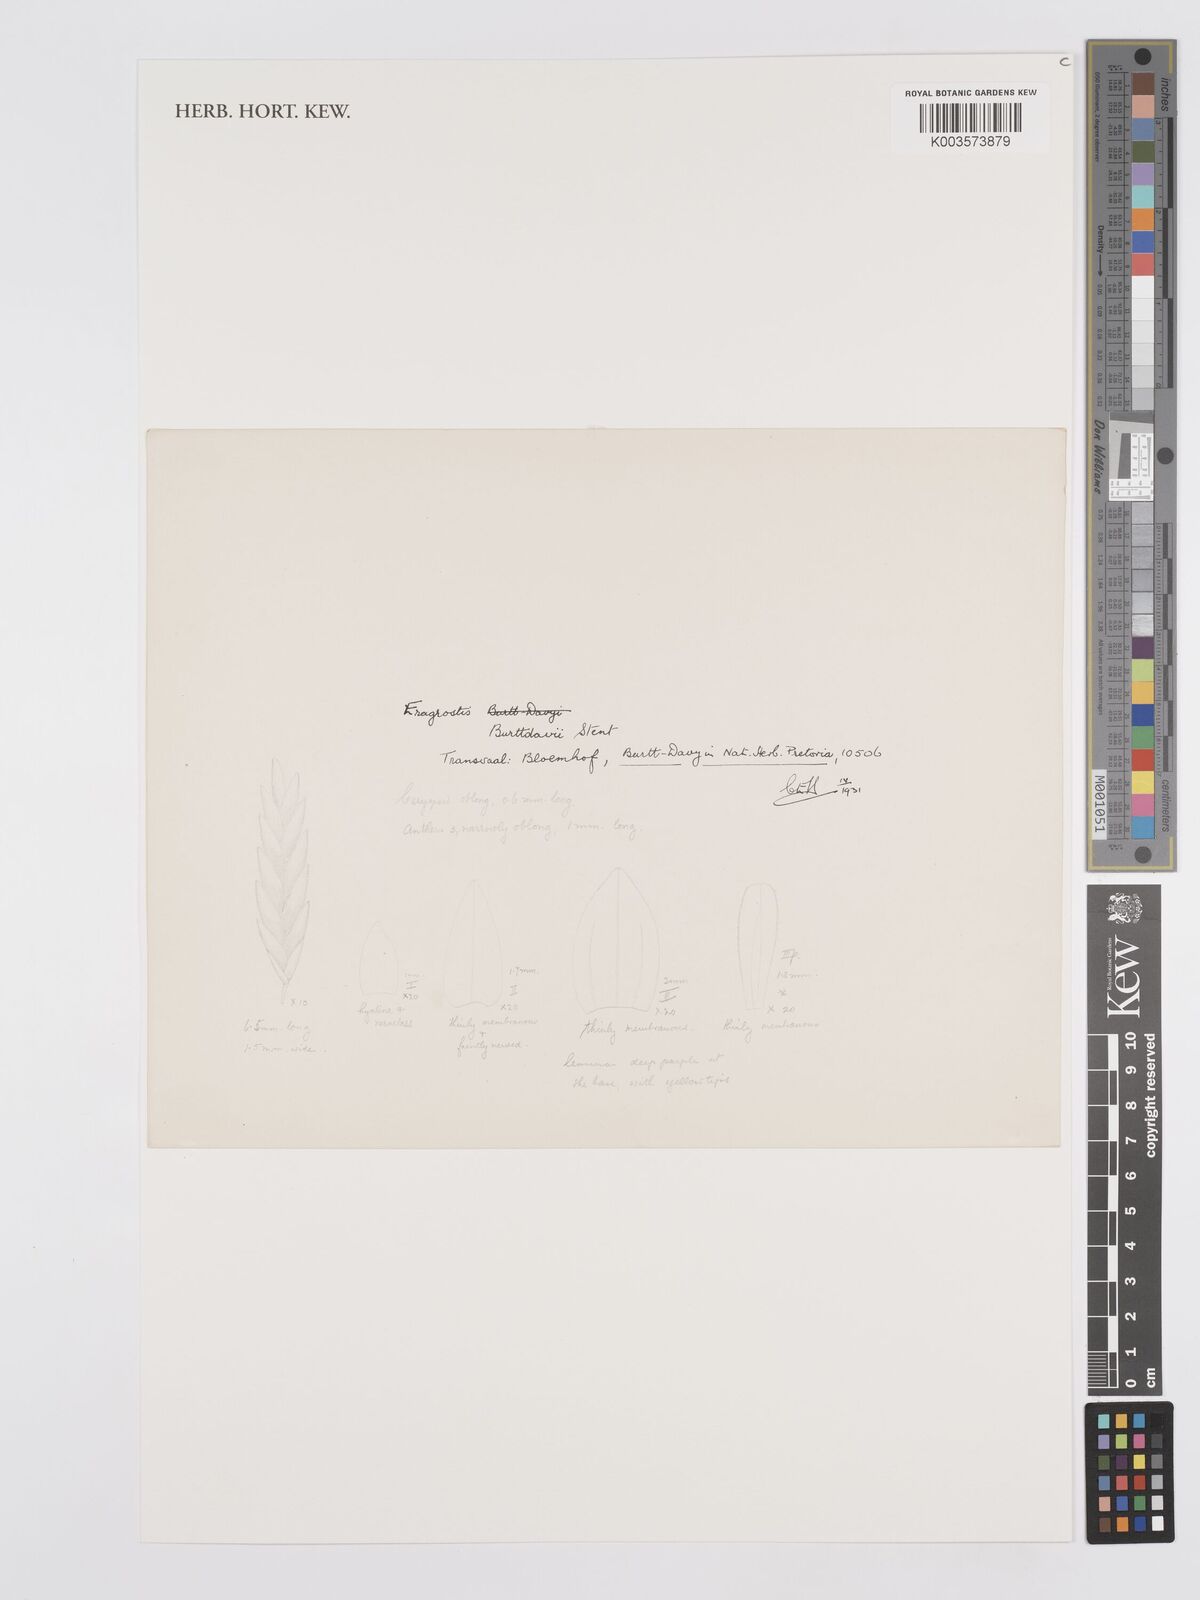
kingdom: Plantae
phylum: Tracheophyta
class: Liliopsida
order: Poales
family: Poaceae
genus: Eragrostis
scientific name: Eragrostis
